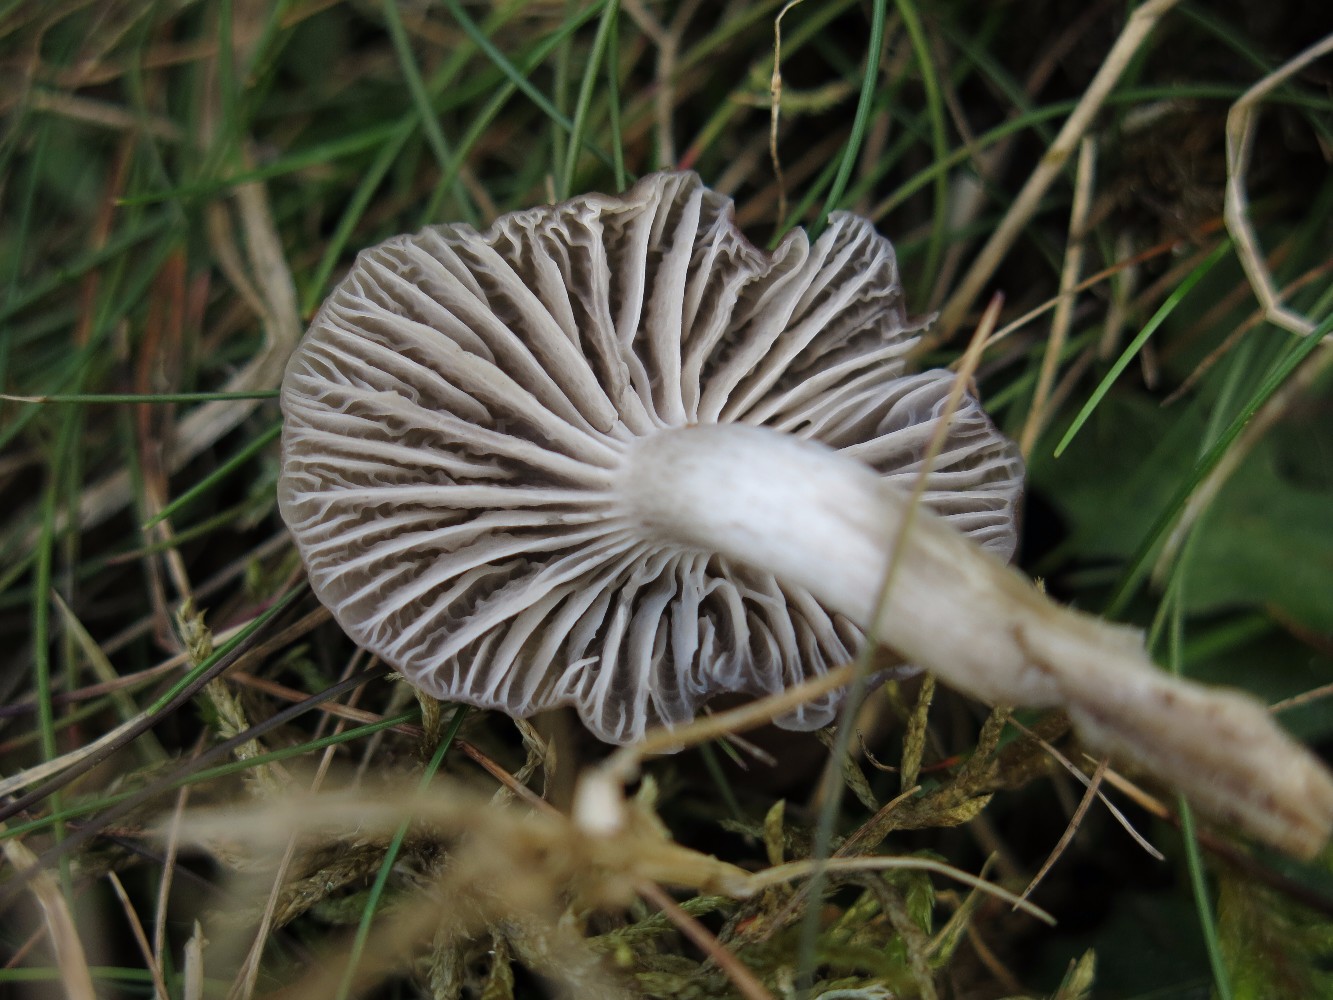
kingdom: Fungi
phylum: Basidiomycota
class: Agaricomycetes
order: Agaricales
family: Hygrophoraceae
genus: Cuphophyllus
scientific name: Cuphophyllus flavipes
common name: gulfodet vokshat
